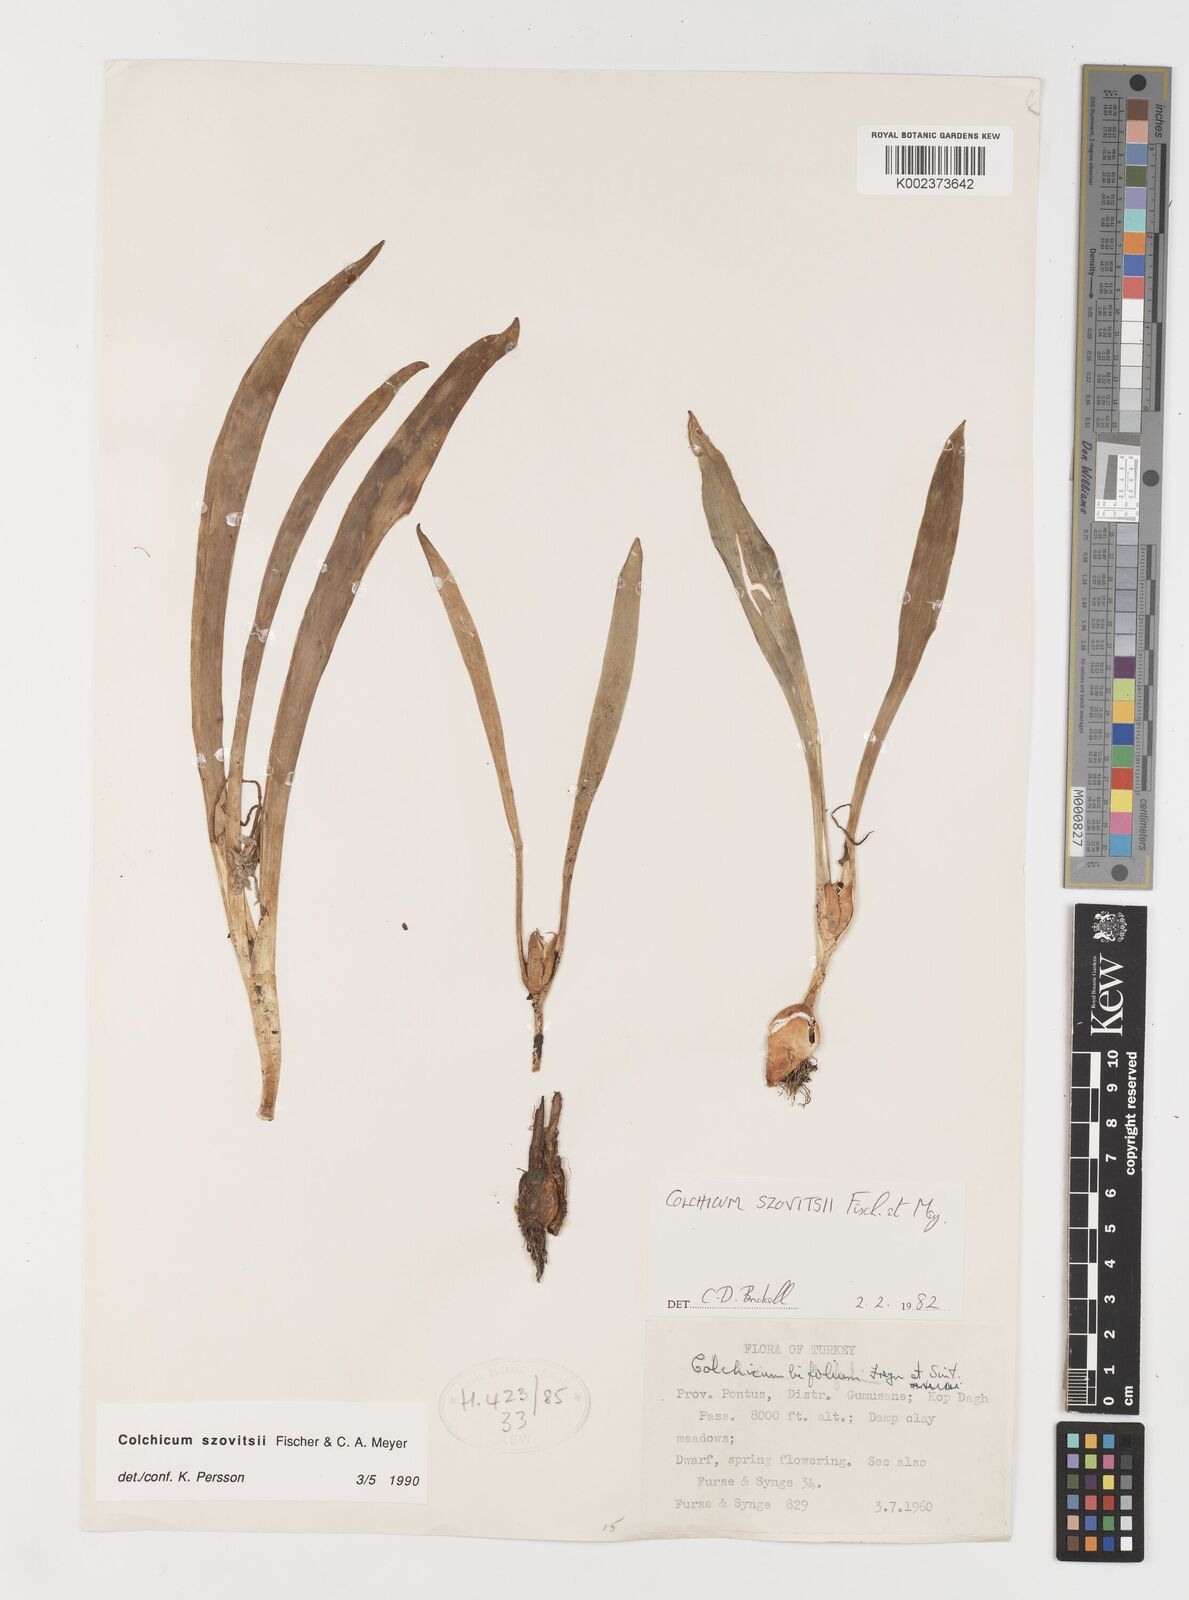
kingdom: Plantae
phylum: Tracheophyta
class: Liliopsida
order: Liliales
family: Colchicaceae
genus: Colchicum
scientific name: Colchicum szovitsii
